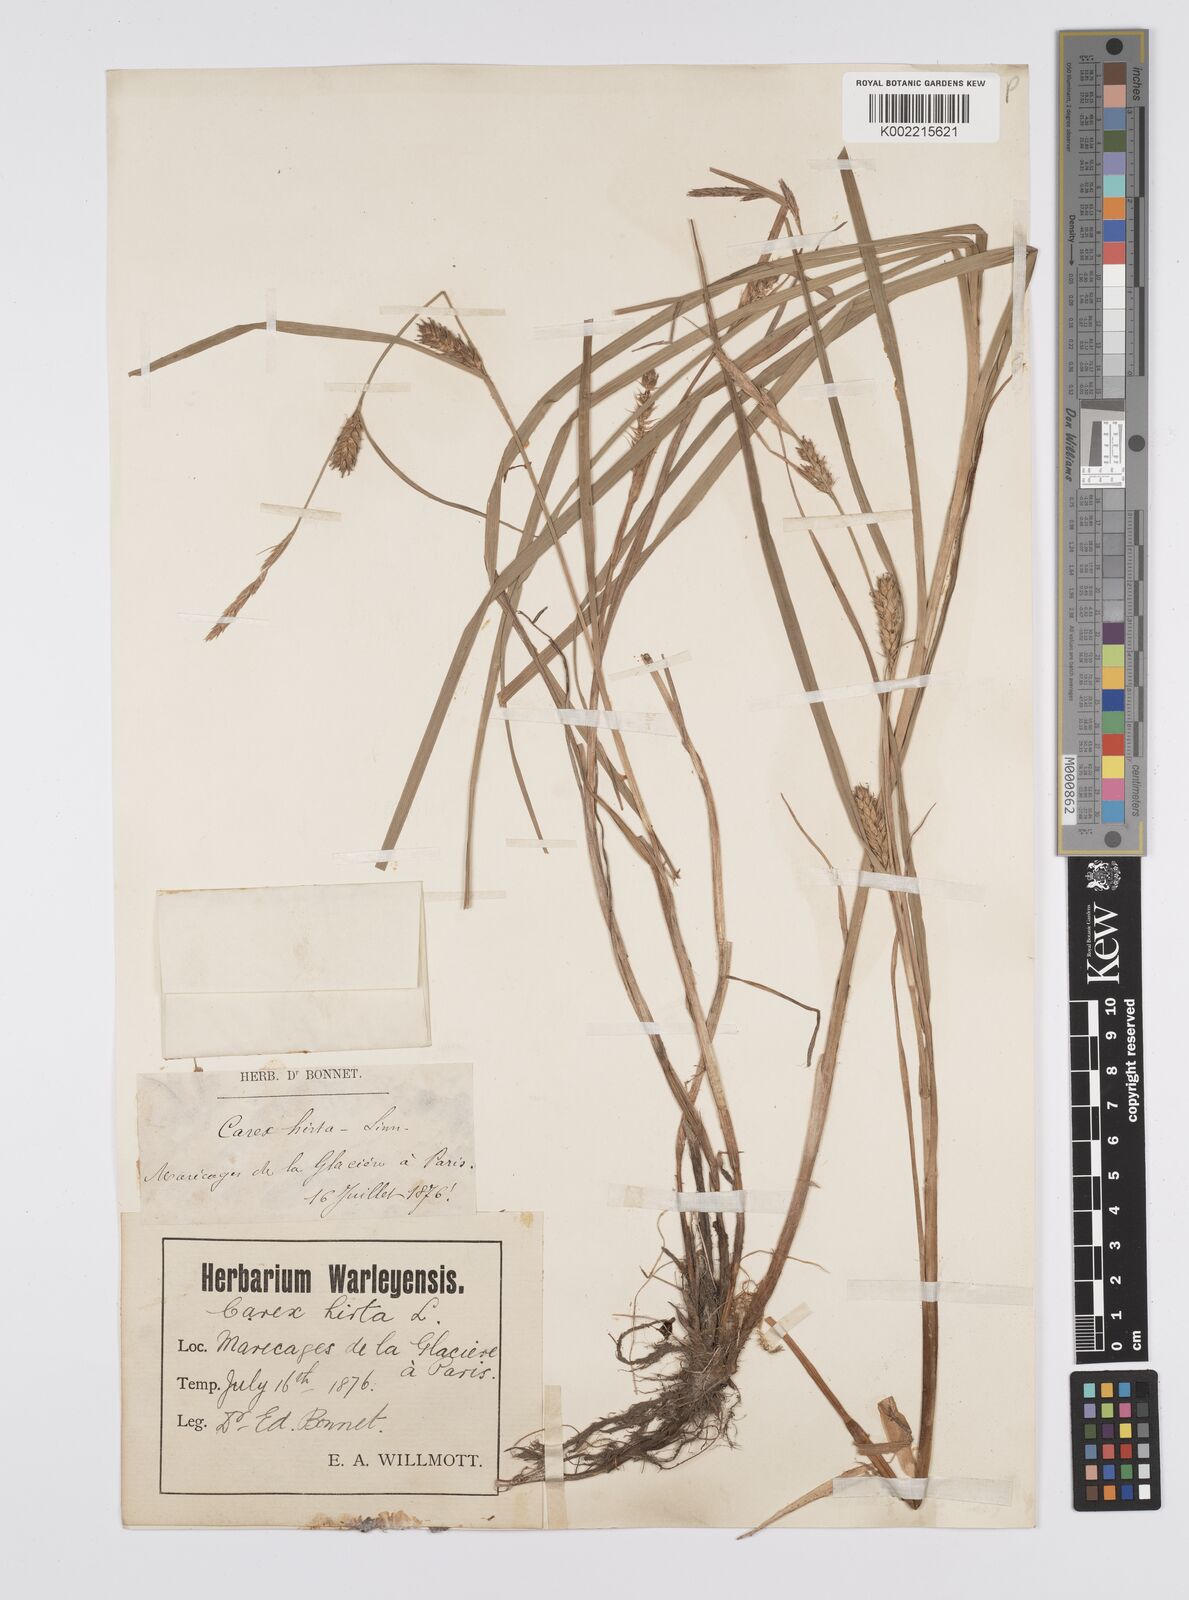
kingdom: Plantae
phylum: Tracheophyta
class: Liliopsida
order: Poales
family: Cyperaceae
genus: Carex
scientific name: Carex hirta
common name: Hairy sedge
